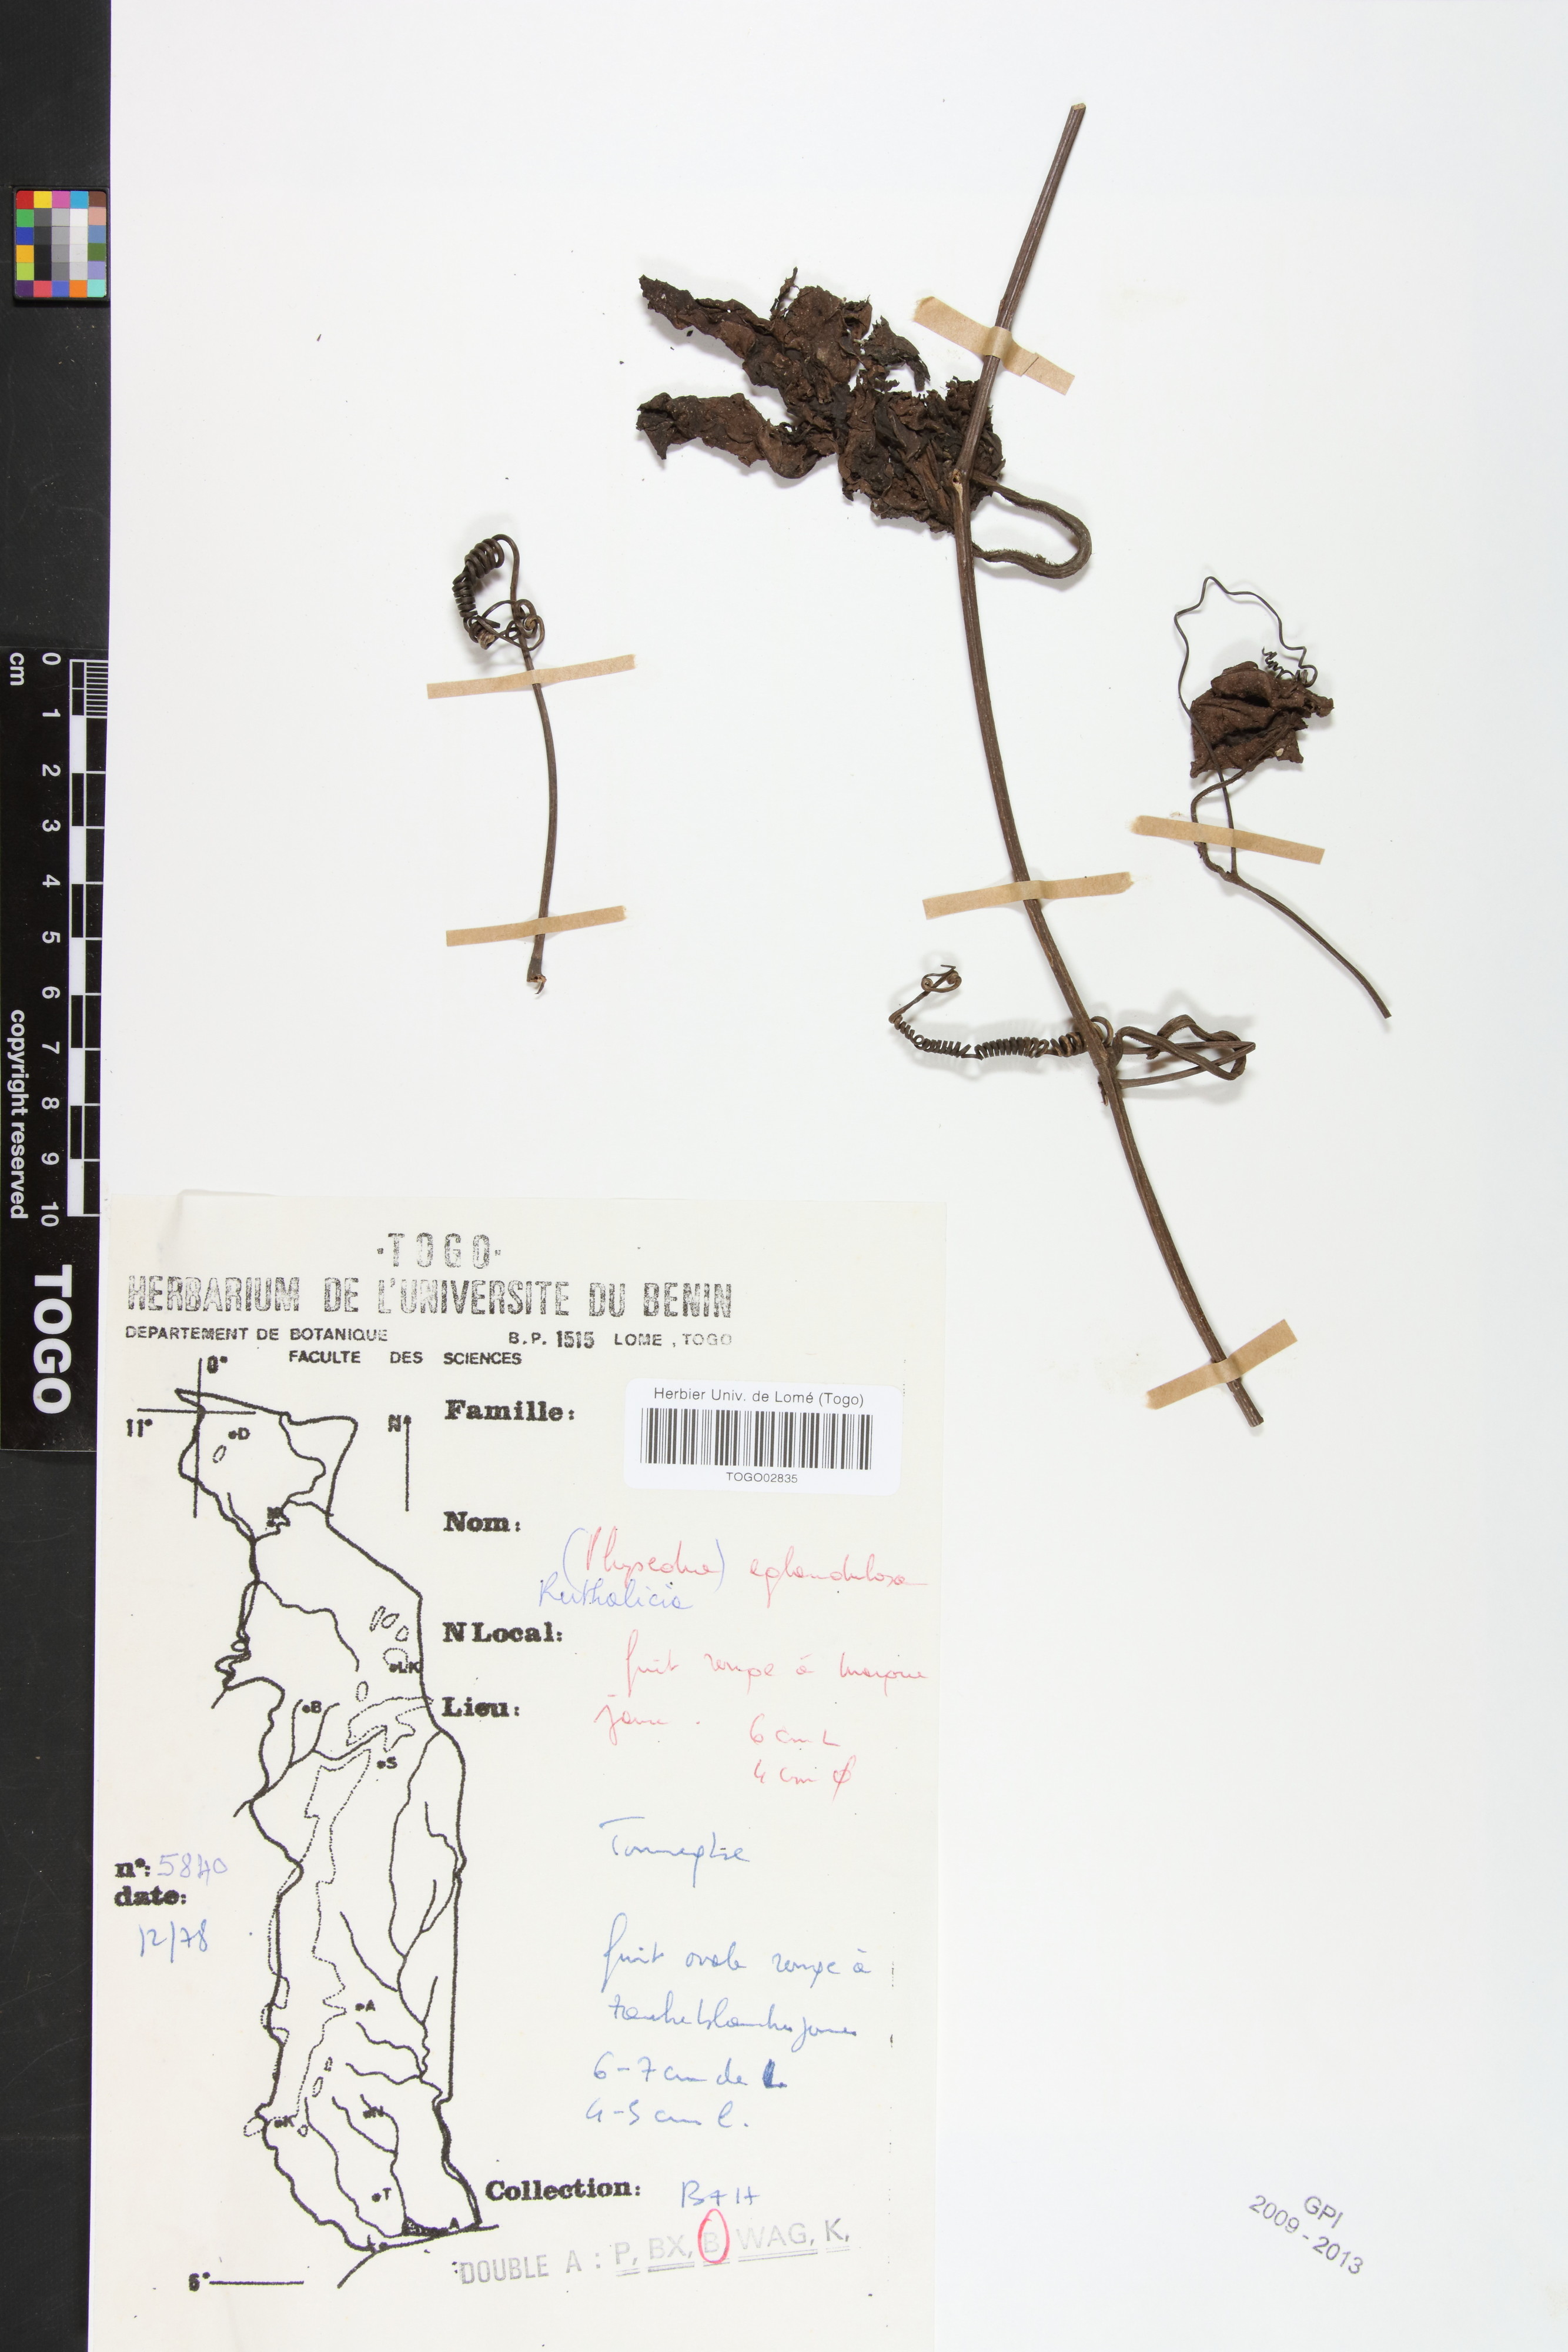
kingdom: Plantae
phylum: Tracheophyta
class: Magnoliopsida
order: Cucurbitales
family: Cucurbitaceae
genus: Ruthalicia
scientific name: Ruthalicia eglandulosa
